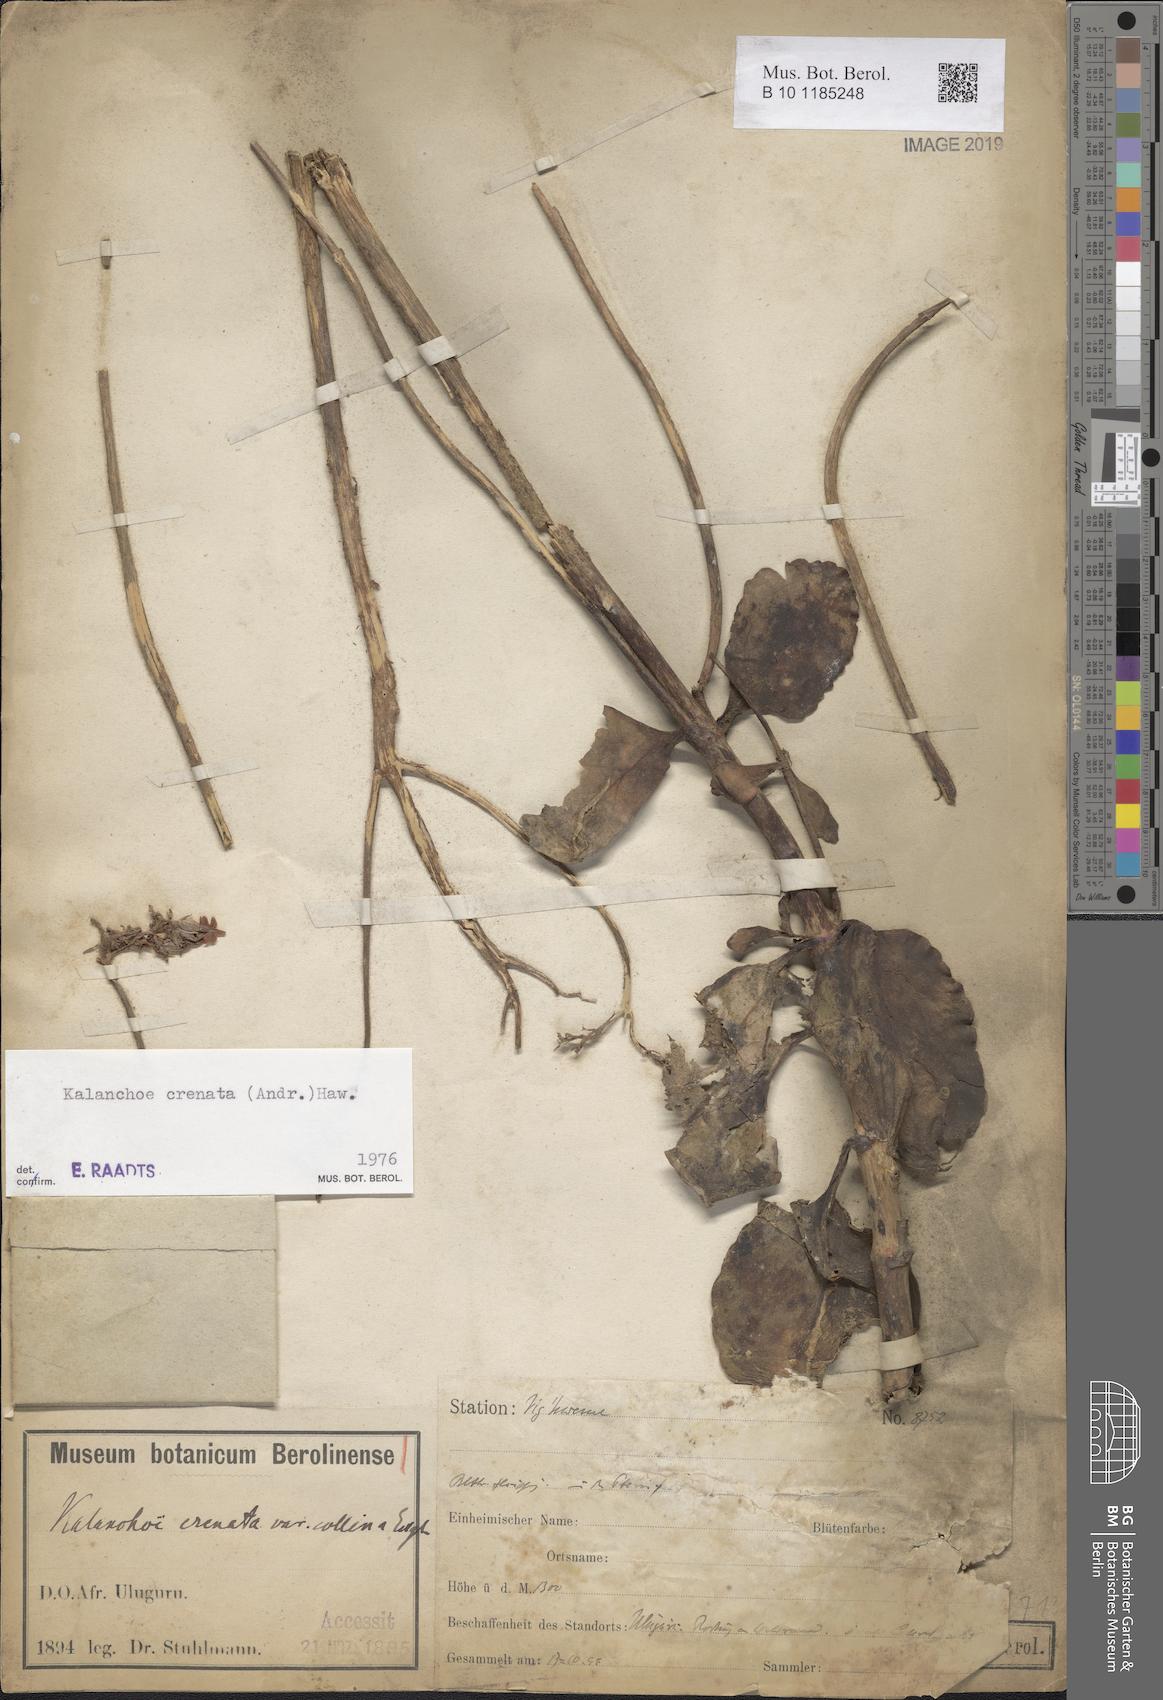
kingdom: Plantae
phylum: Tracheophyta
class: Magnoliopsida
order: Saxifragales
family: Crassulaceae
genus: Kalanchoe
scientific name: Kalanchoe crenata
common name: Neverdie
